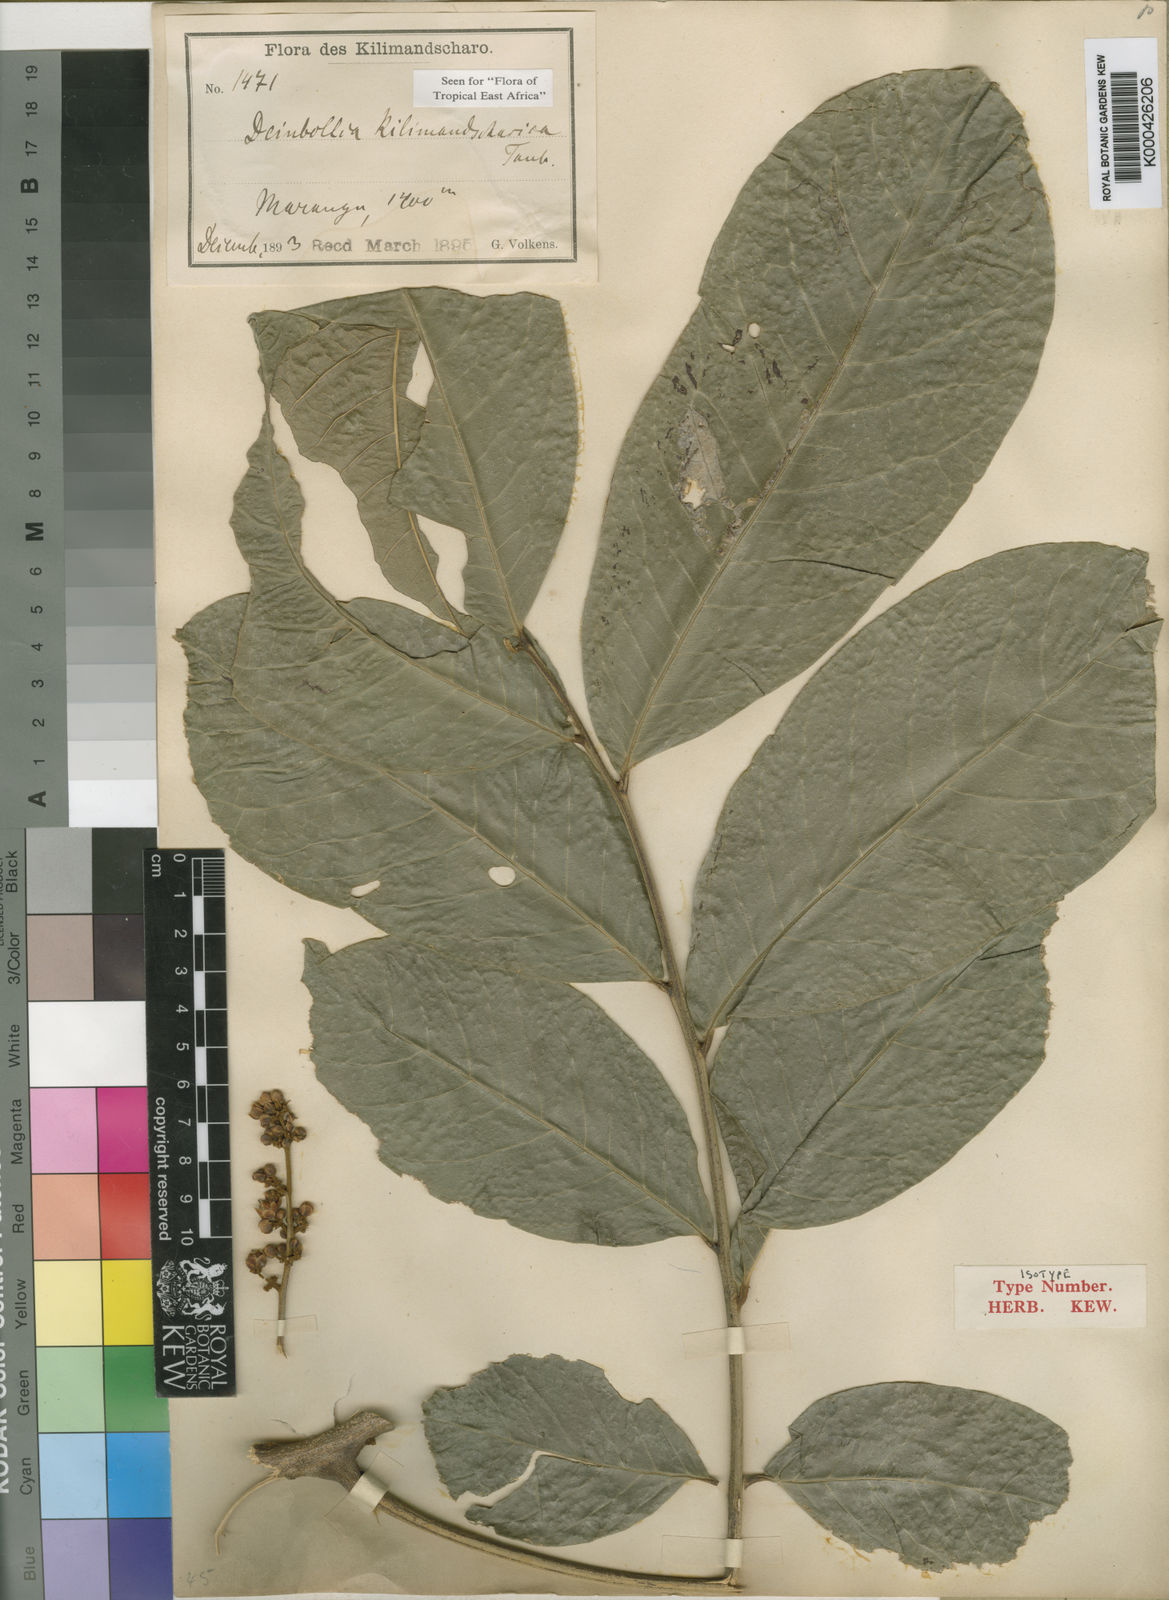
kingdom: Plantae
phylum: Tracheophyta
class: Magnoliopsida
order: Sapindales
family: Sapindaceae
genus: Deinbollia
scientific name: Deinbollia kilimandscharica
